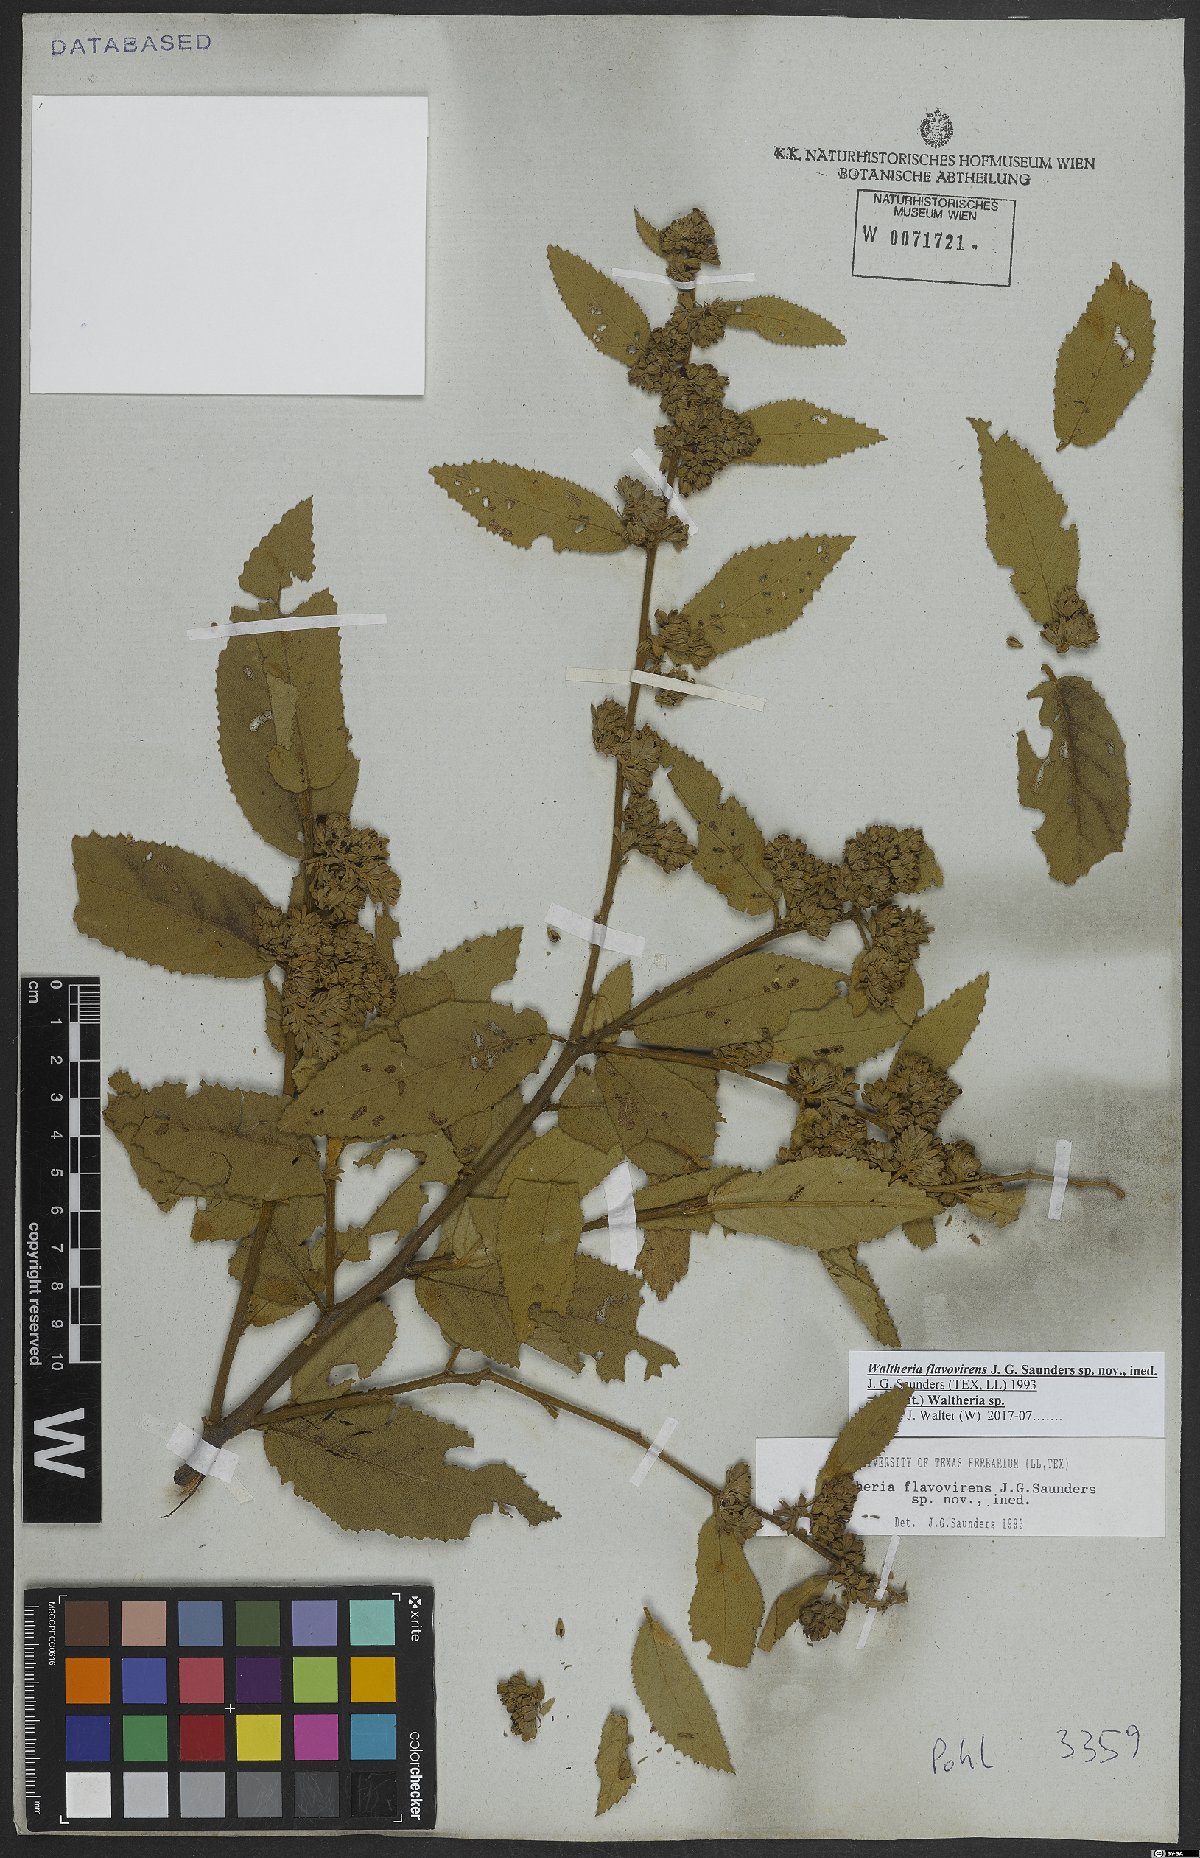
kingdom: Plantae
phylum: Tracheophyta
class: Magnoliopsida
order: Malvales
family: Malvaceae
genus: Waltheria
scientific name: Waltheria
